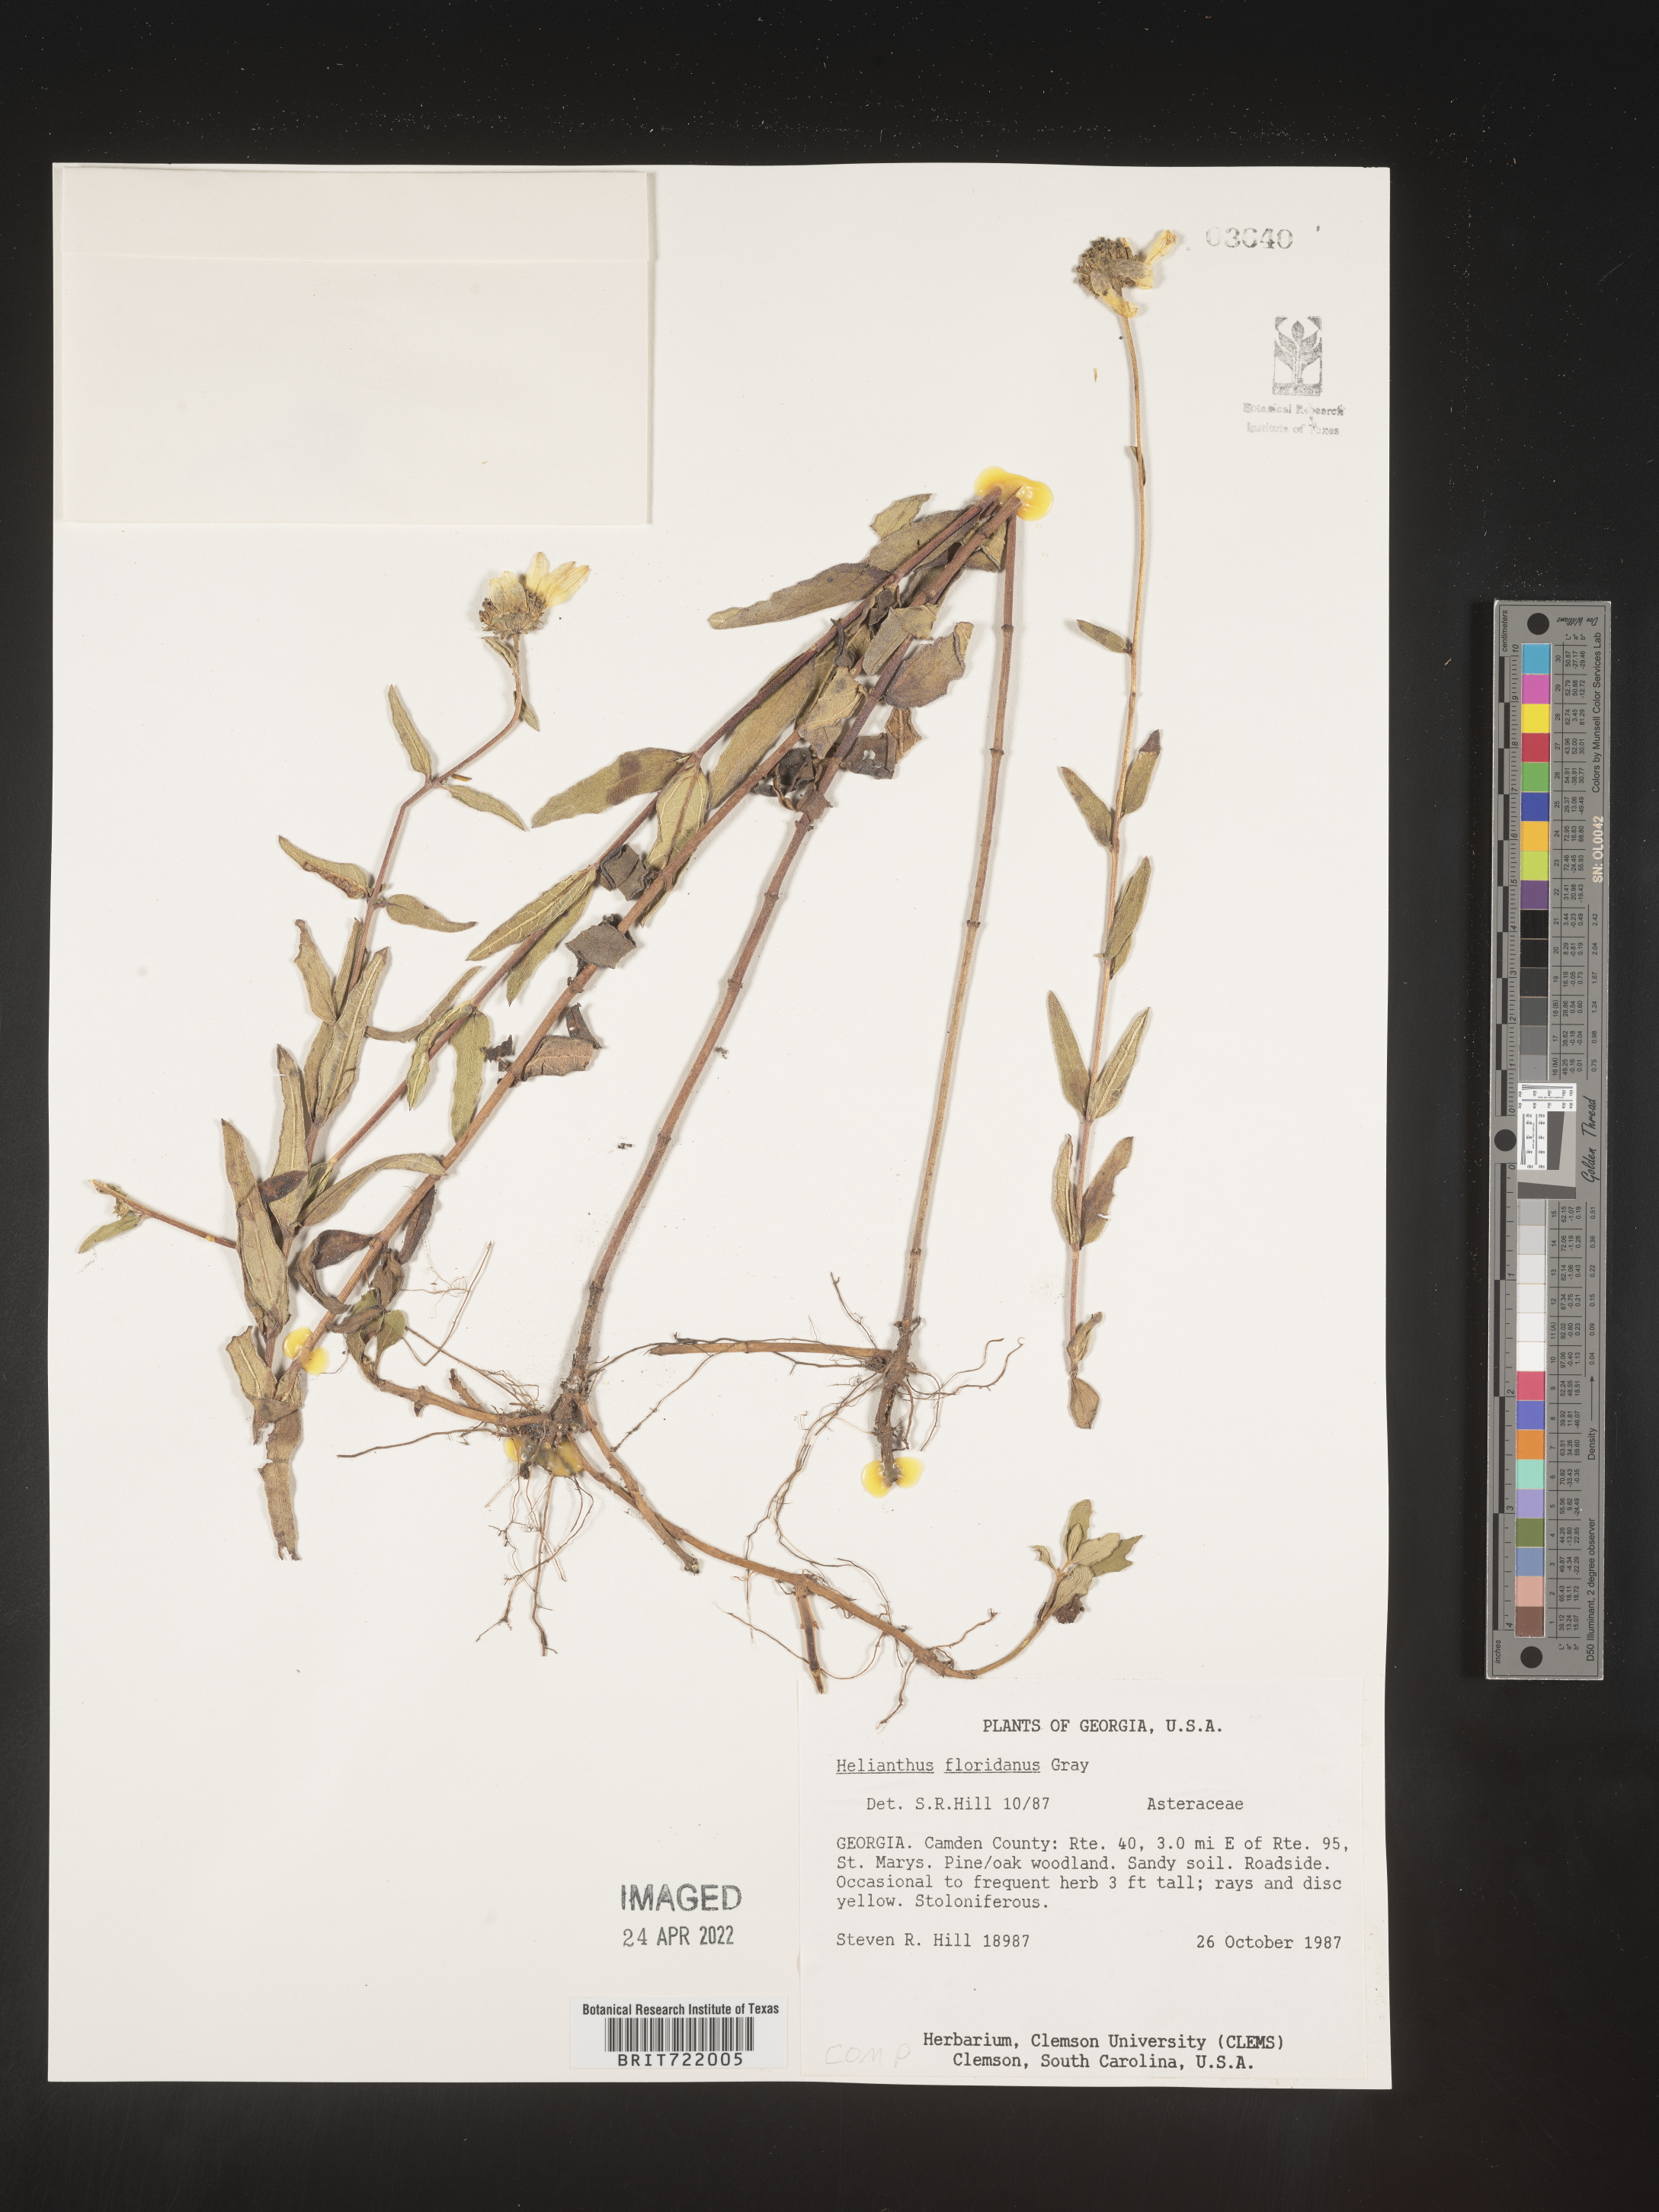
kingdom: Plantae
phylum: Tracheophyta
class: Magnoliopsida
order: Asterales
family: Asteraceae
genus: Helianthus
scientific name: Helianthus
